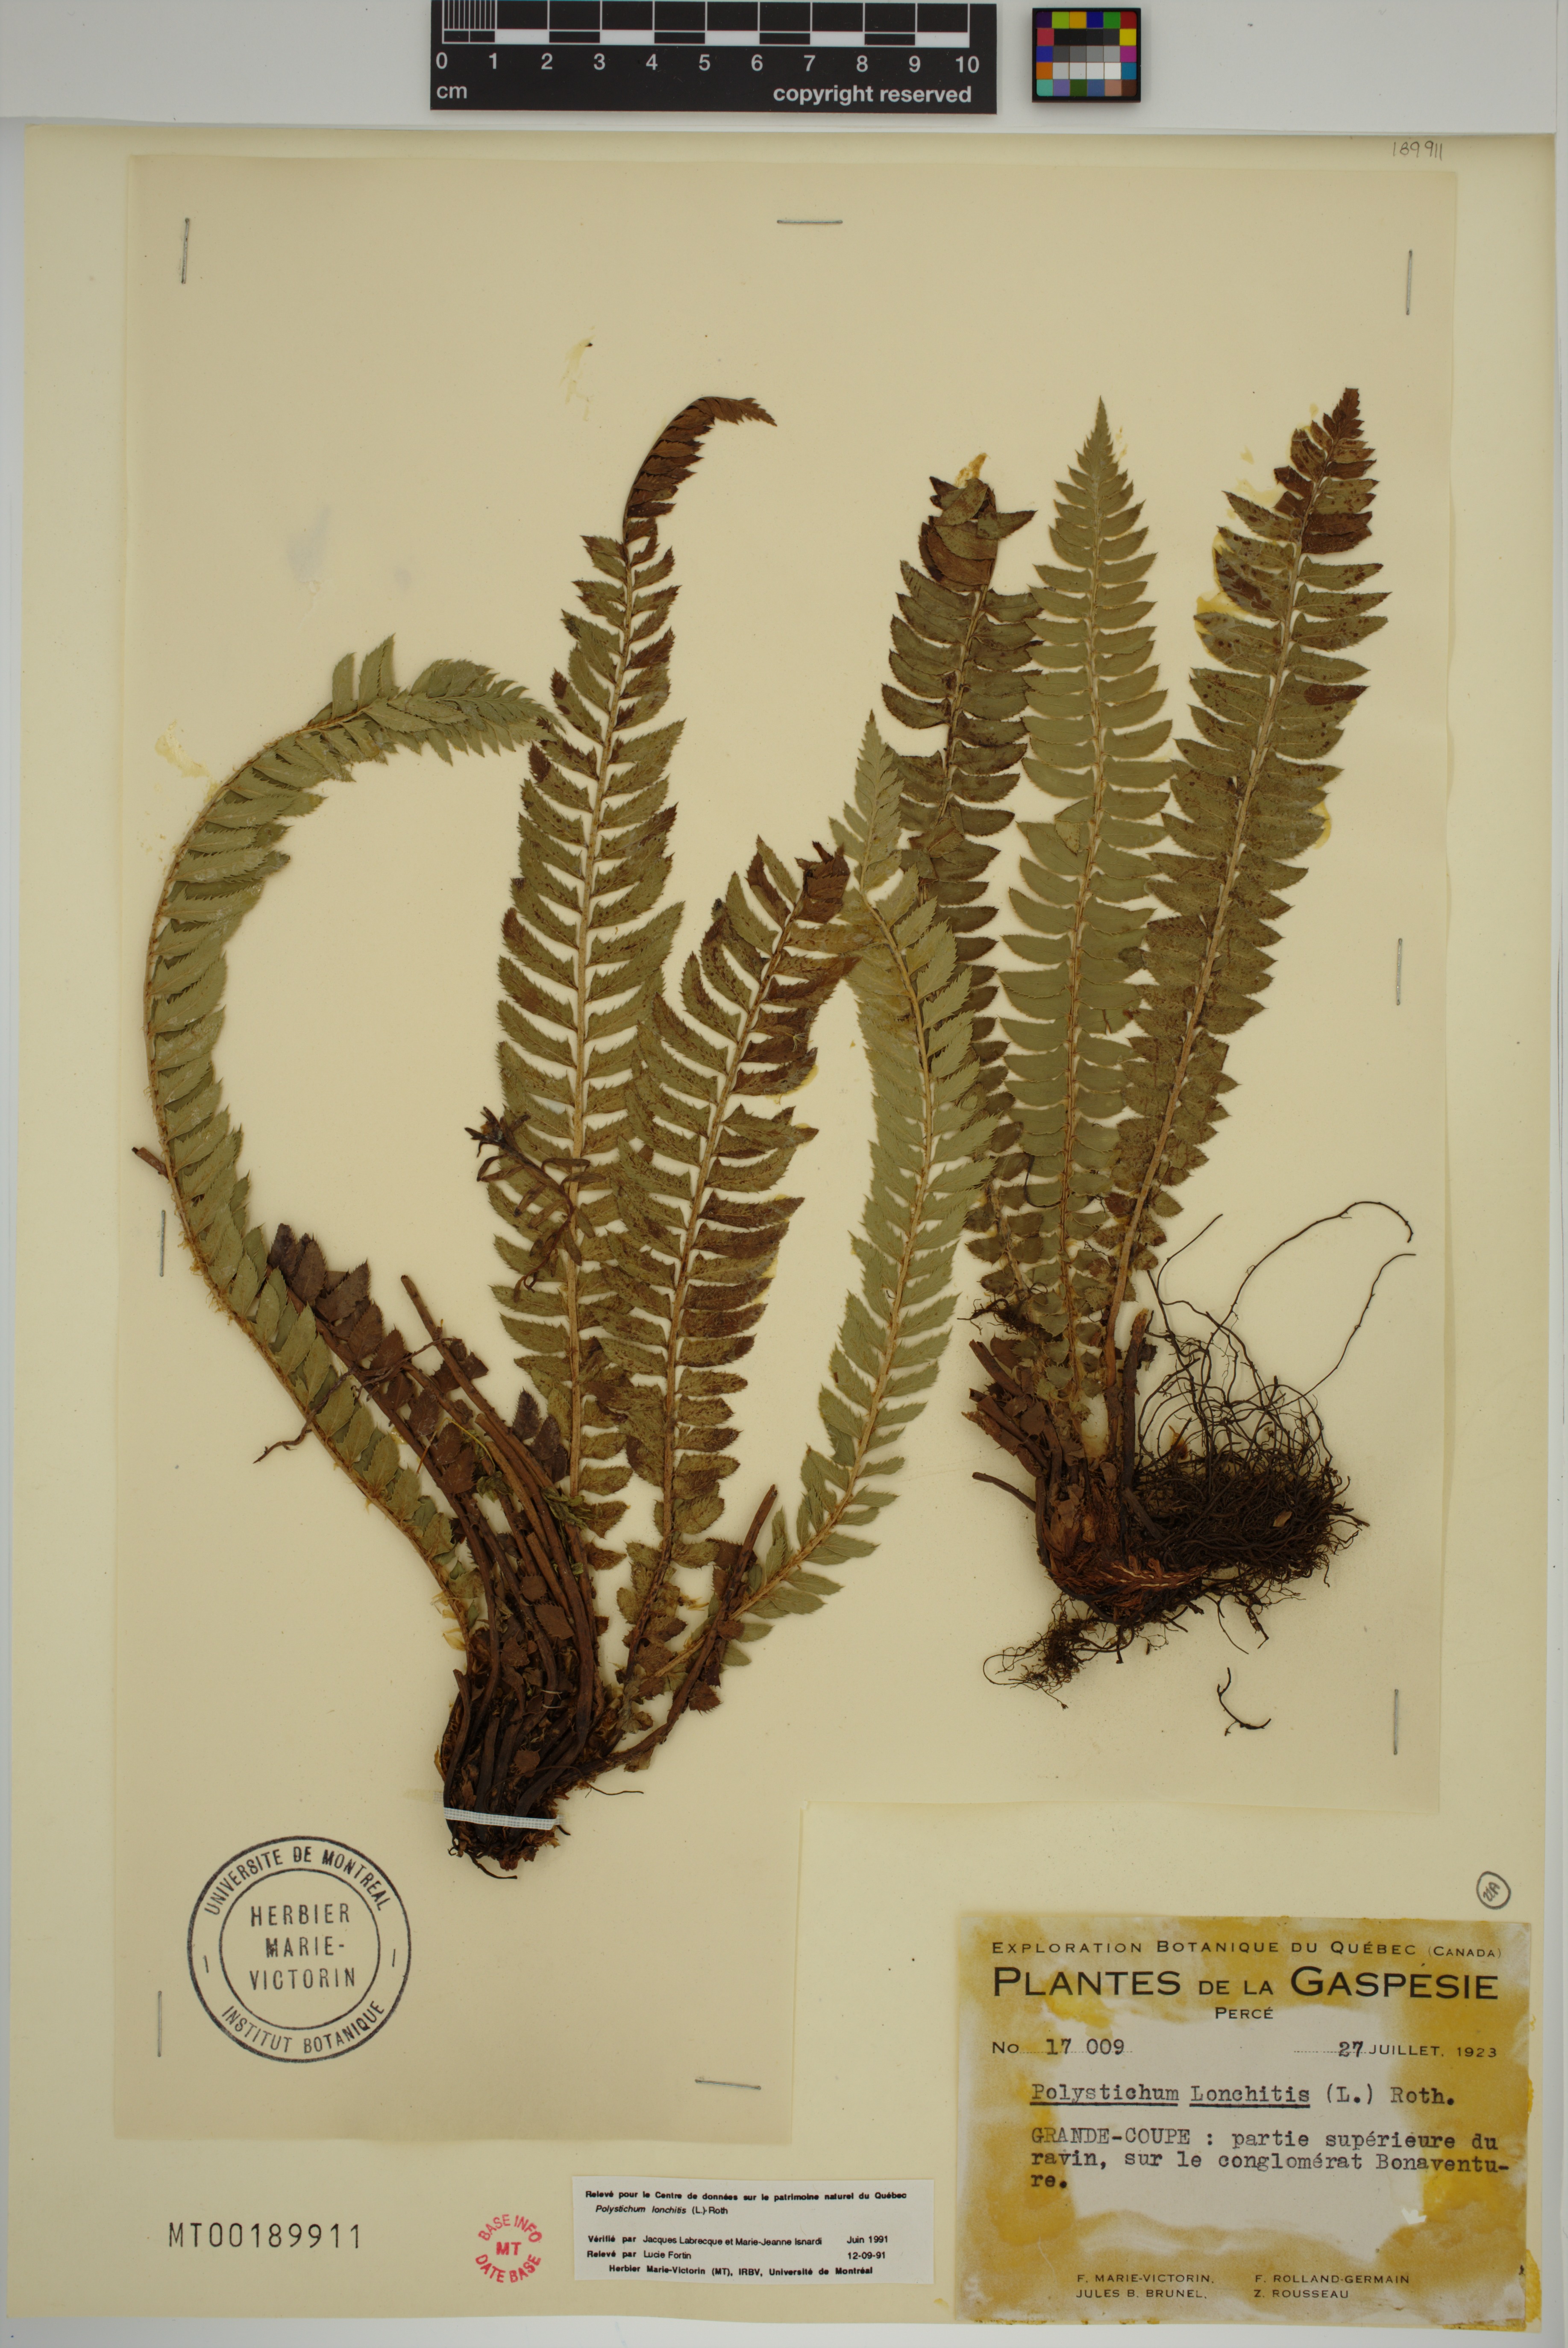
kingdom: Plantae
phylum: Tracheophyta
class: Polypodiopsida
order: Polypodiales
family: Dryopteridaceae
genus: Polystichum
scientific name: Polystichum lonchitis
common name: Holly fern
